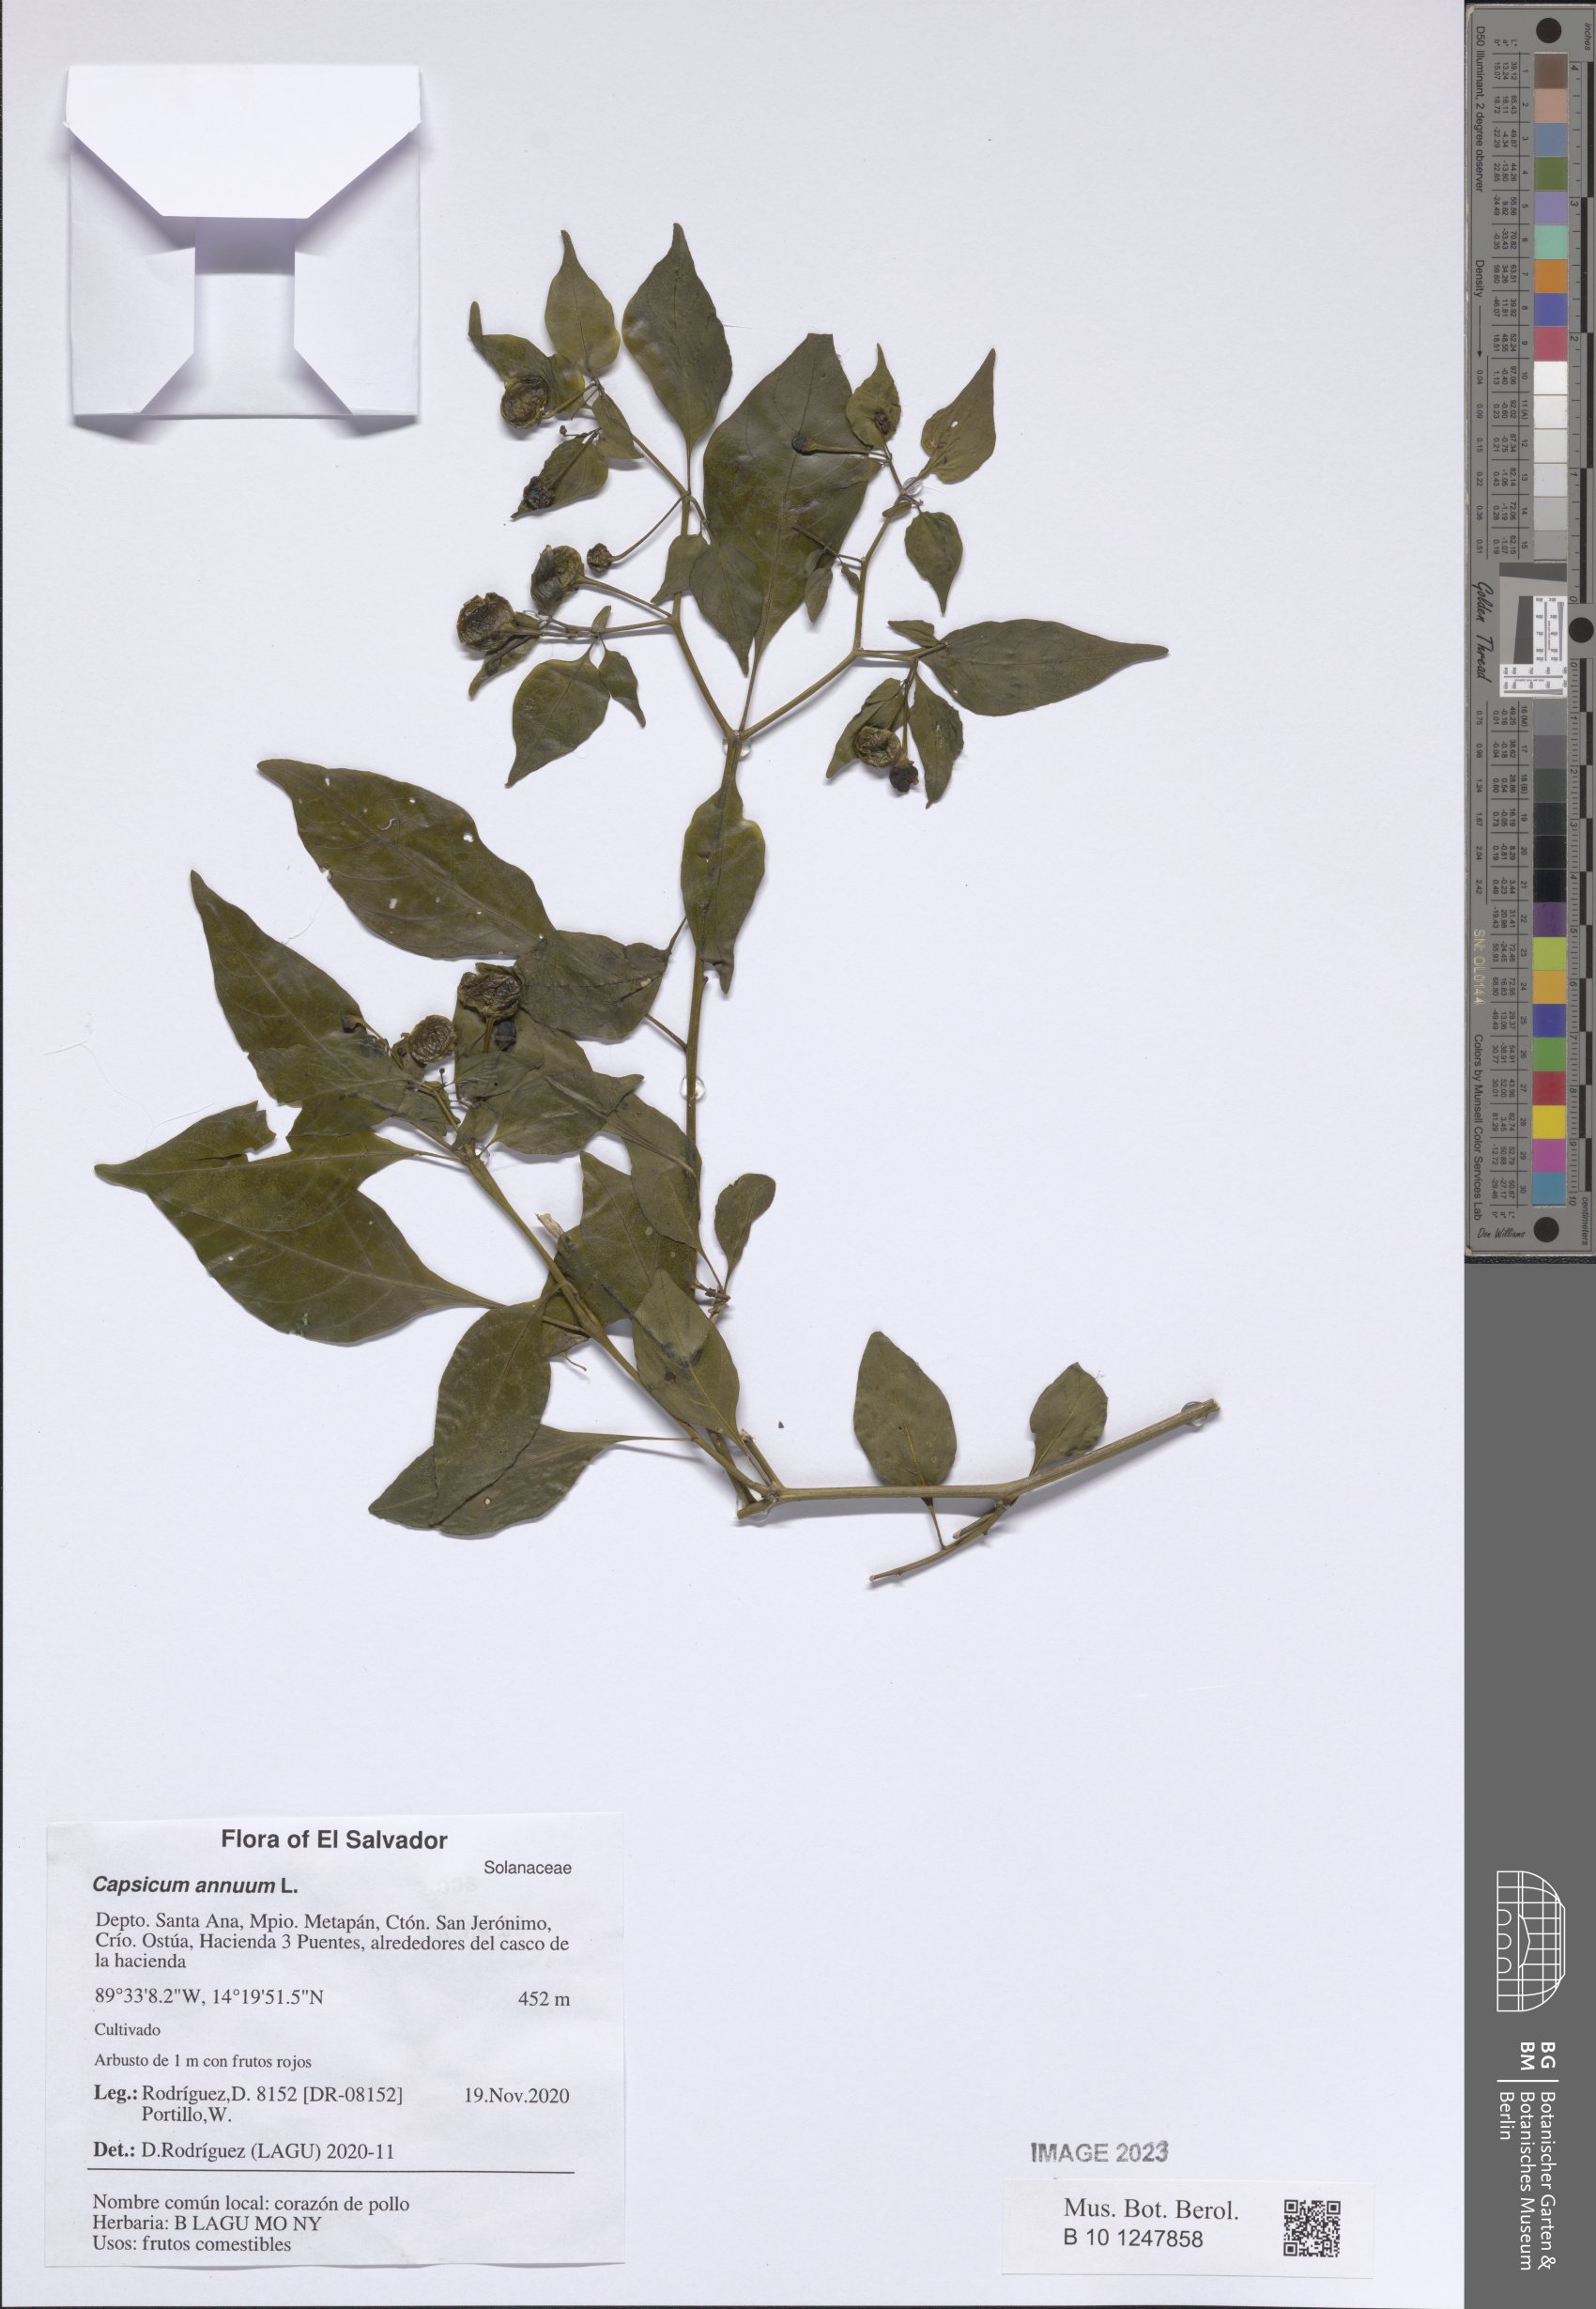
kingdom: Plantae
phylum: Tracheophyta
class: Magnoliopsida
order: Solanales
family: Solanaceae
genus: Capsicum
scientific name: Capsicum annuum
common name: Sweet pepper
